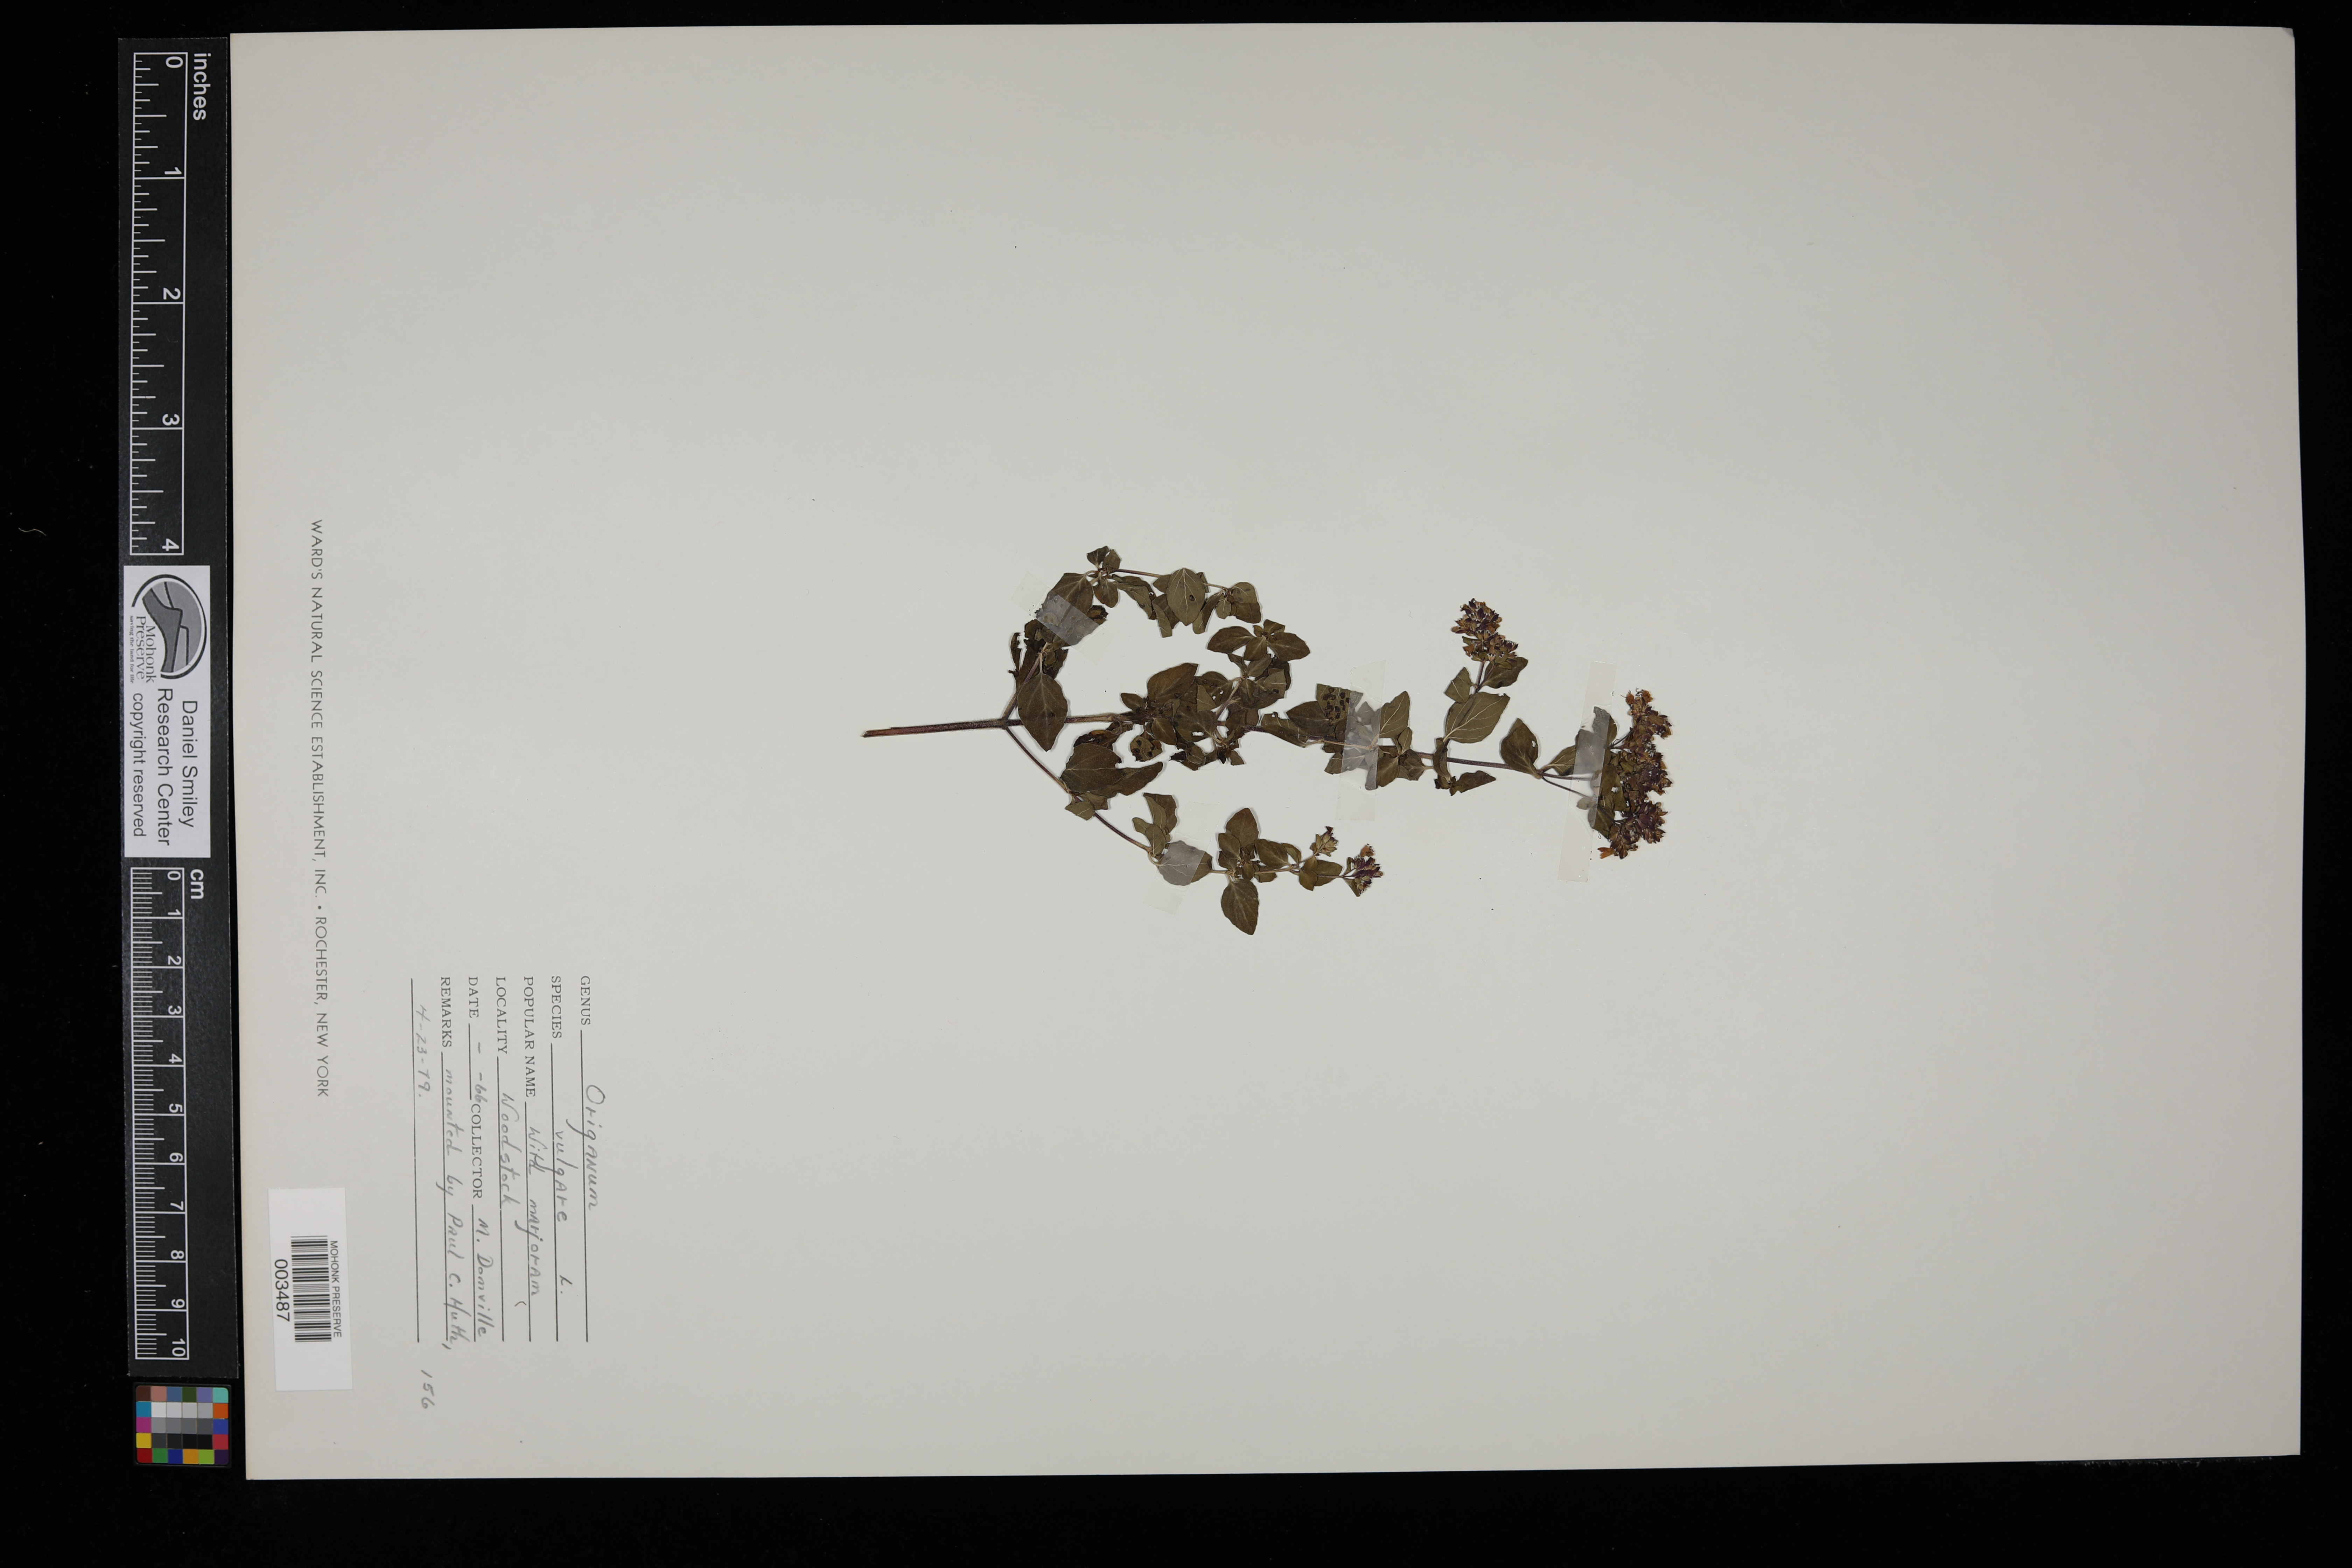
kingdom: Plantae
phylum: Tracheophyta
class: Magnoliopsida
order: Lamiales
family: Lamiaceae
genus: Origanum
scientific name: Origanum vulgare
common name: Wild marjoram
